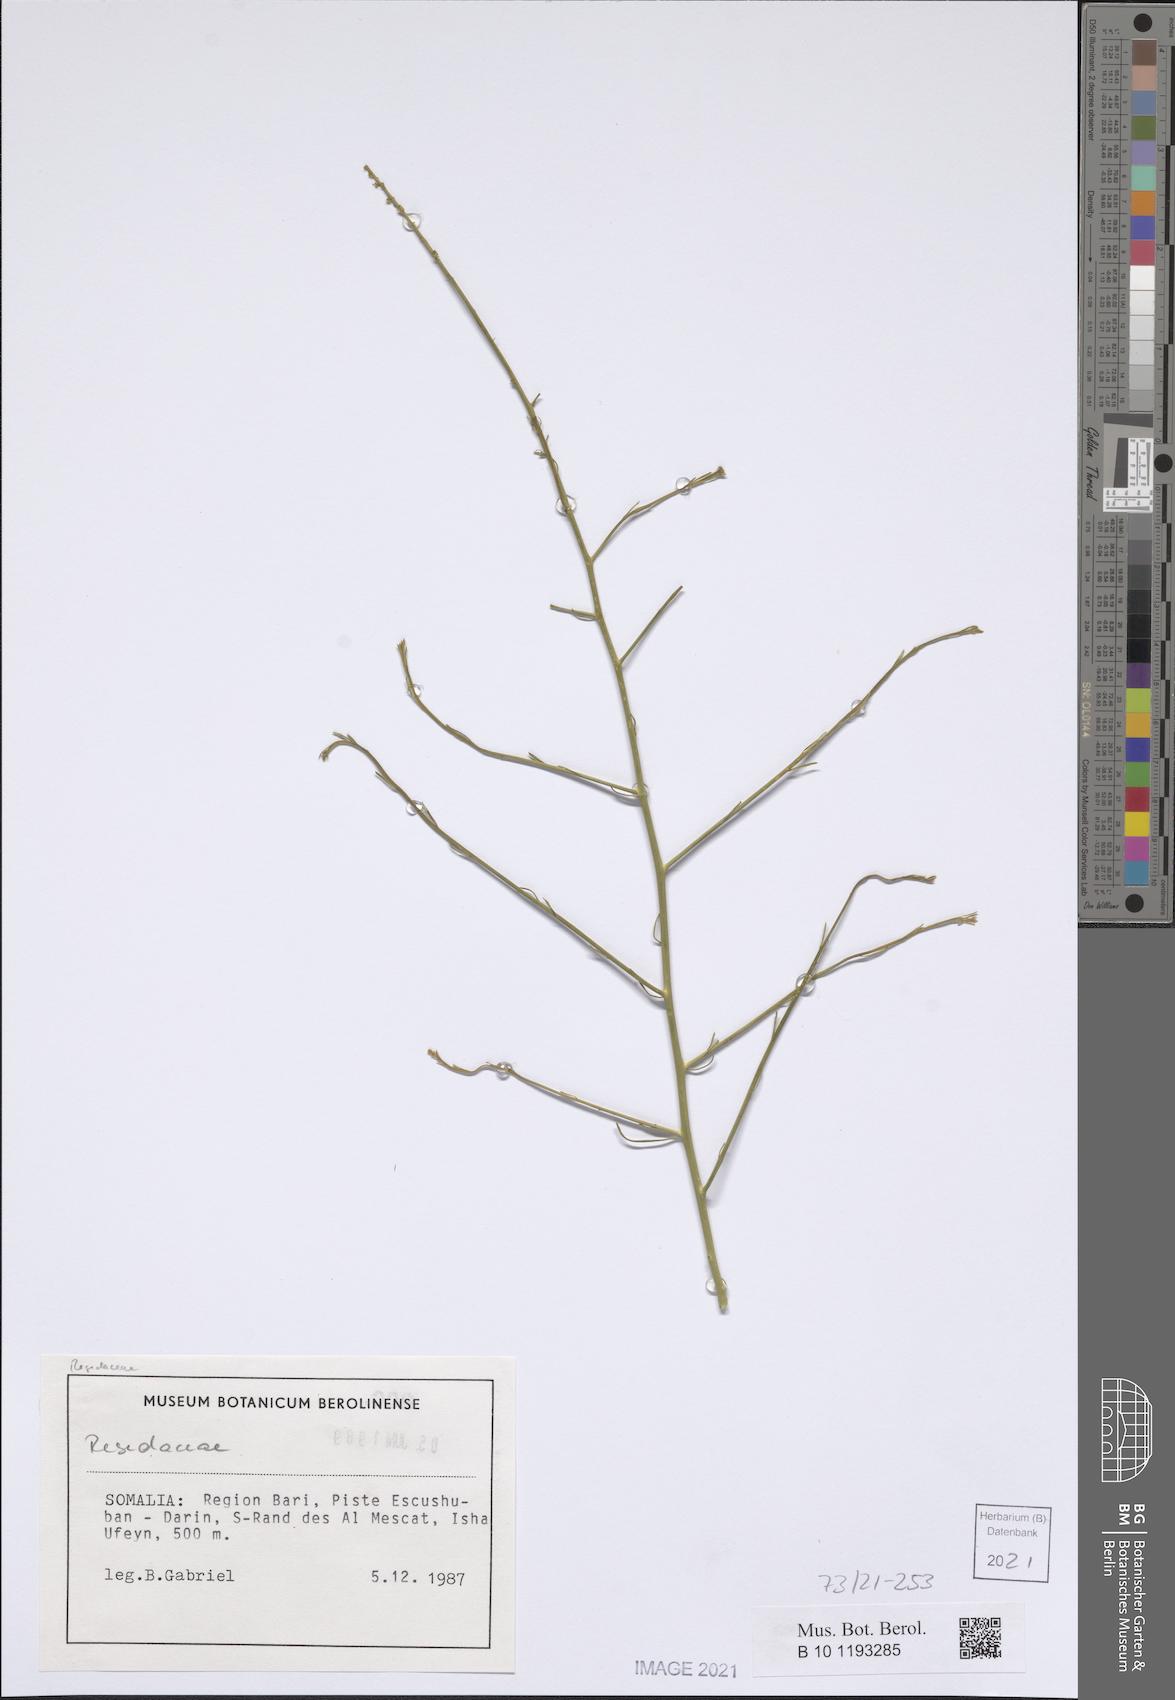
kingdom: Plantae
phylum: Tracheophyta
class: Magnoliopsida
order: Brassicales
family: Resedaceae
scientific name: Resedaceae
